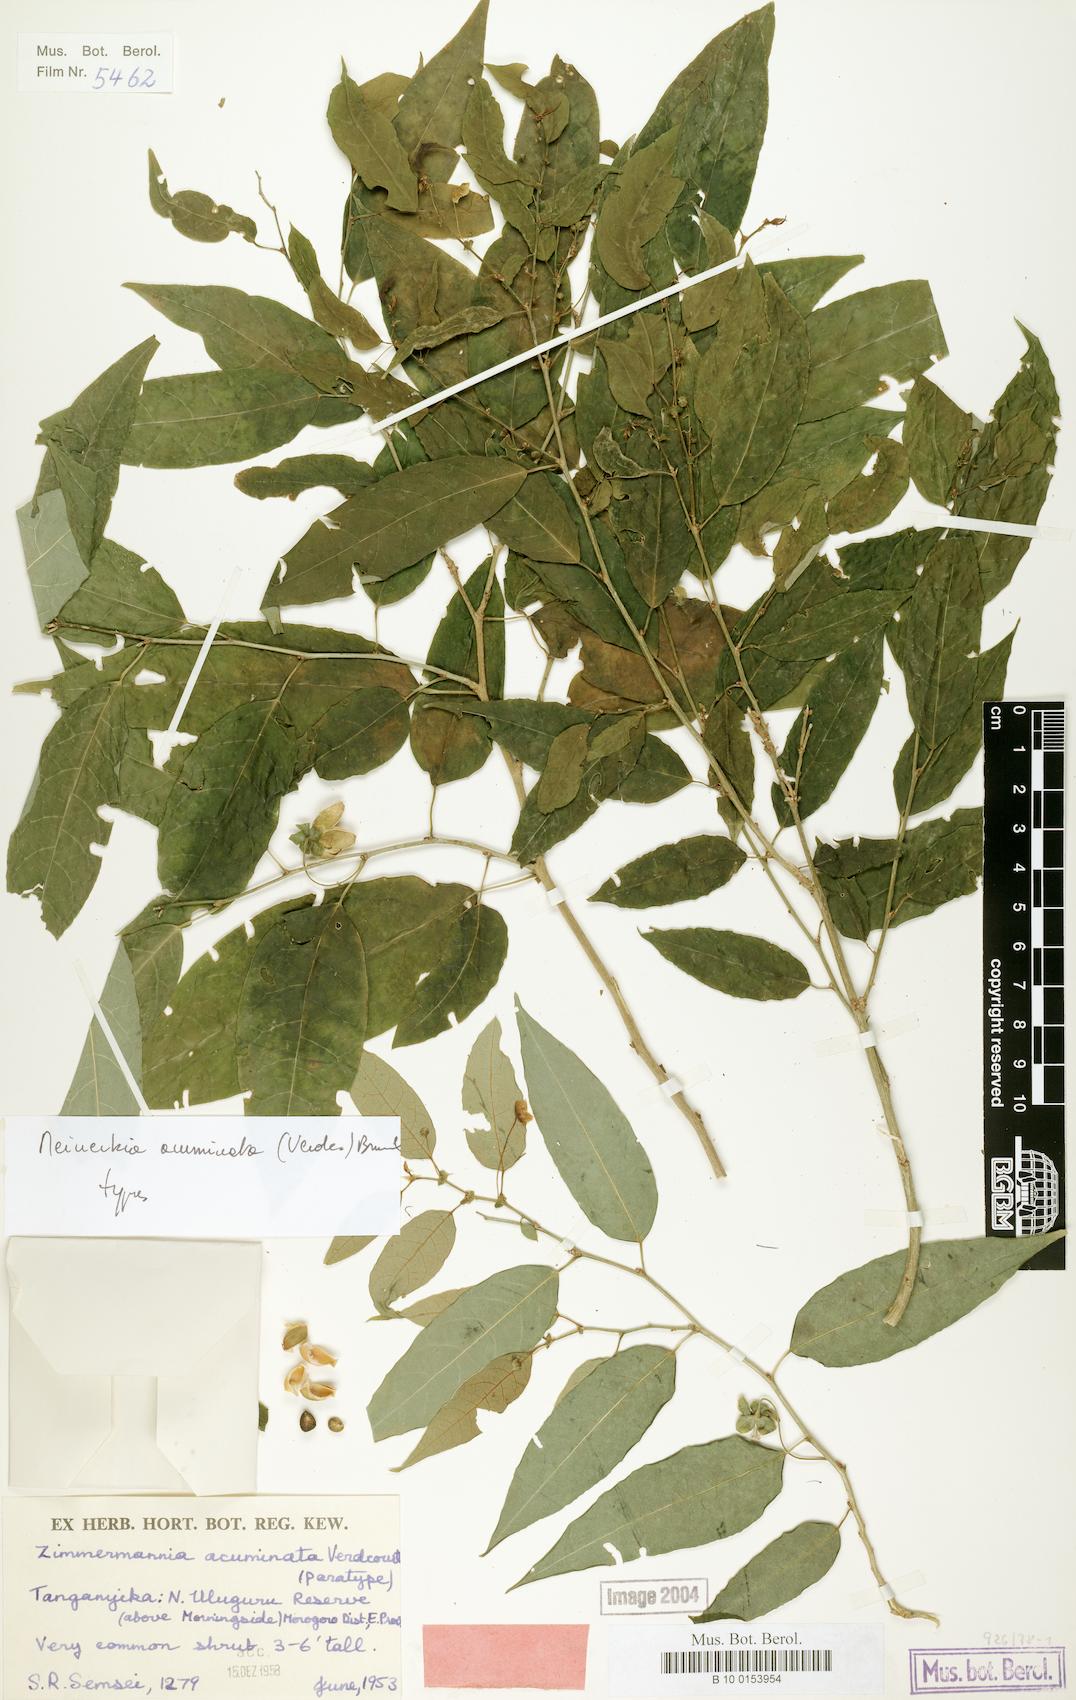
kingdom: Plantae
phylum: Tracheophyta
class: Magnoliopsida
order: Malpighiales
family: Phyllanthaceae
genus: Meineckia
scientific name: Meineckia acuminata
